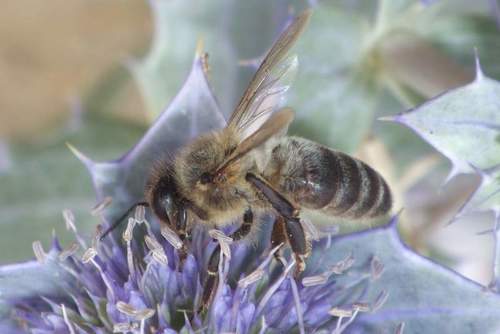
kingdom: Animalia
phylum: Arthropoda
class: Insecta
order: Hymenoptera
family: Apidae
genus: Apis
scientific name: Apis mellifera
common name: Honey bee
